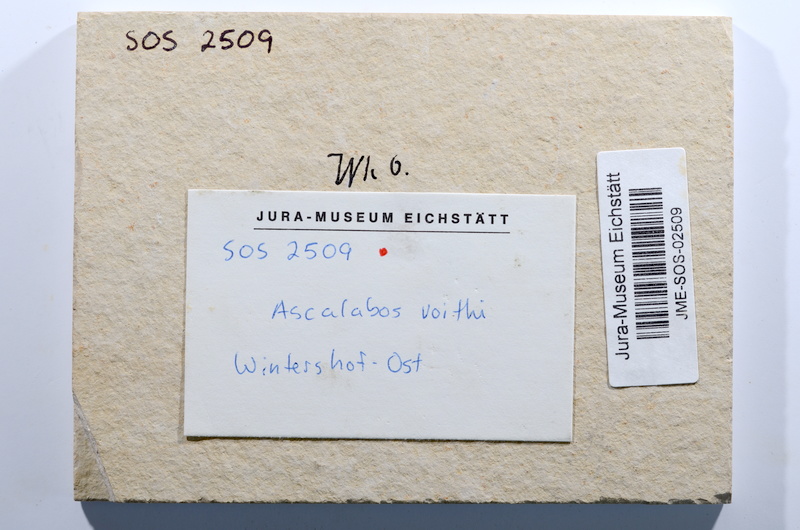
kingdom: Animalia
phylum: Chordata
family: Ascalaboidae
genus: Ascalabos
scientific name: Ascalabos voithii
